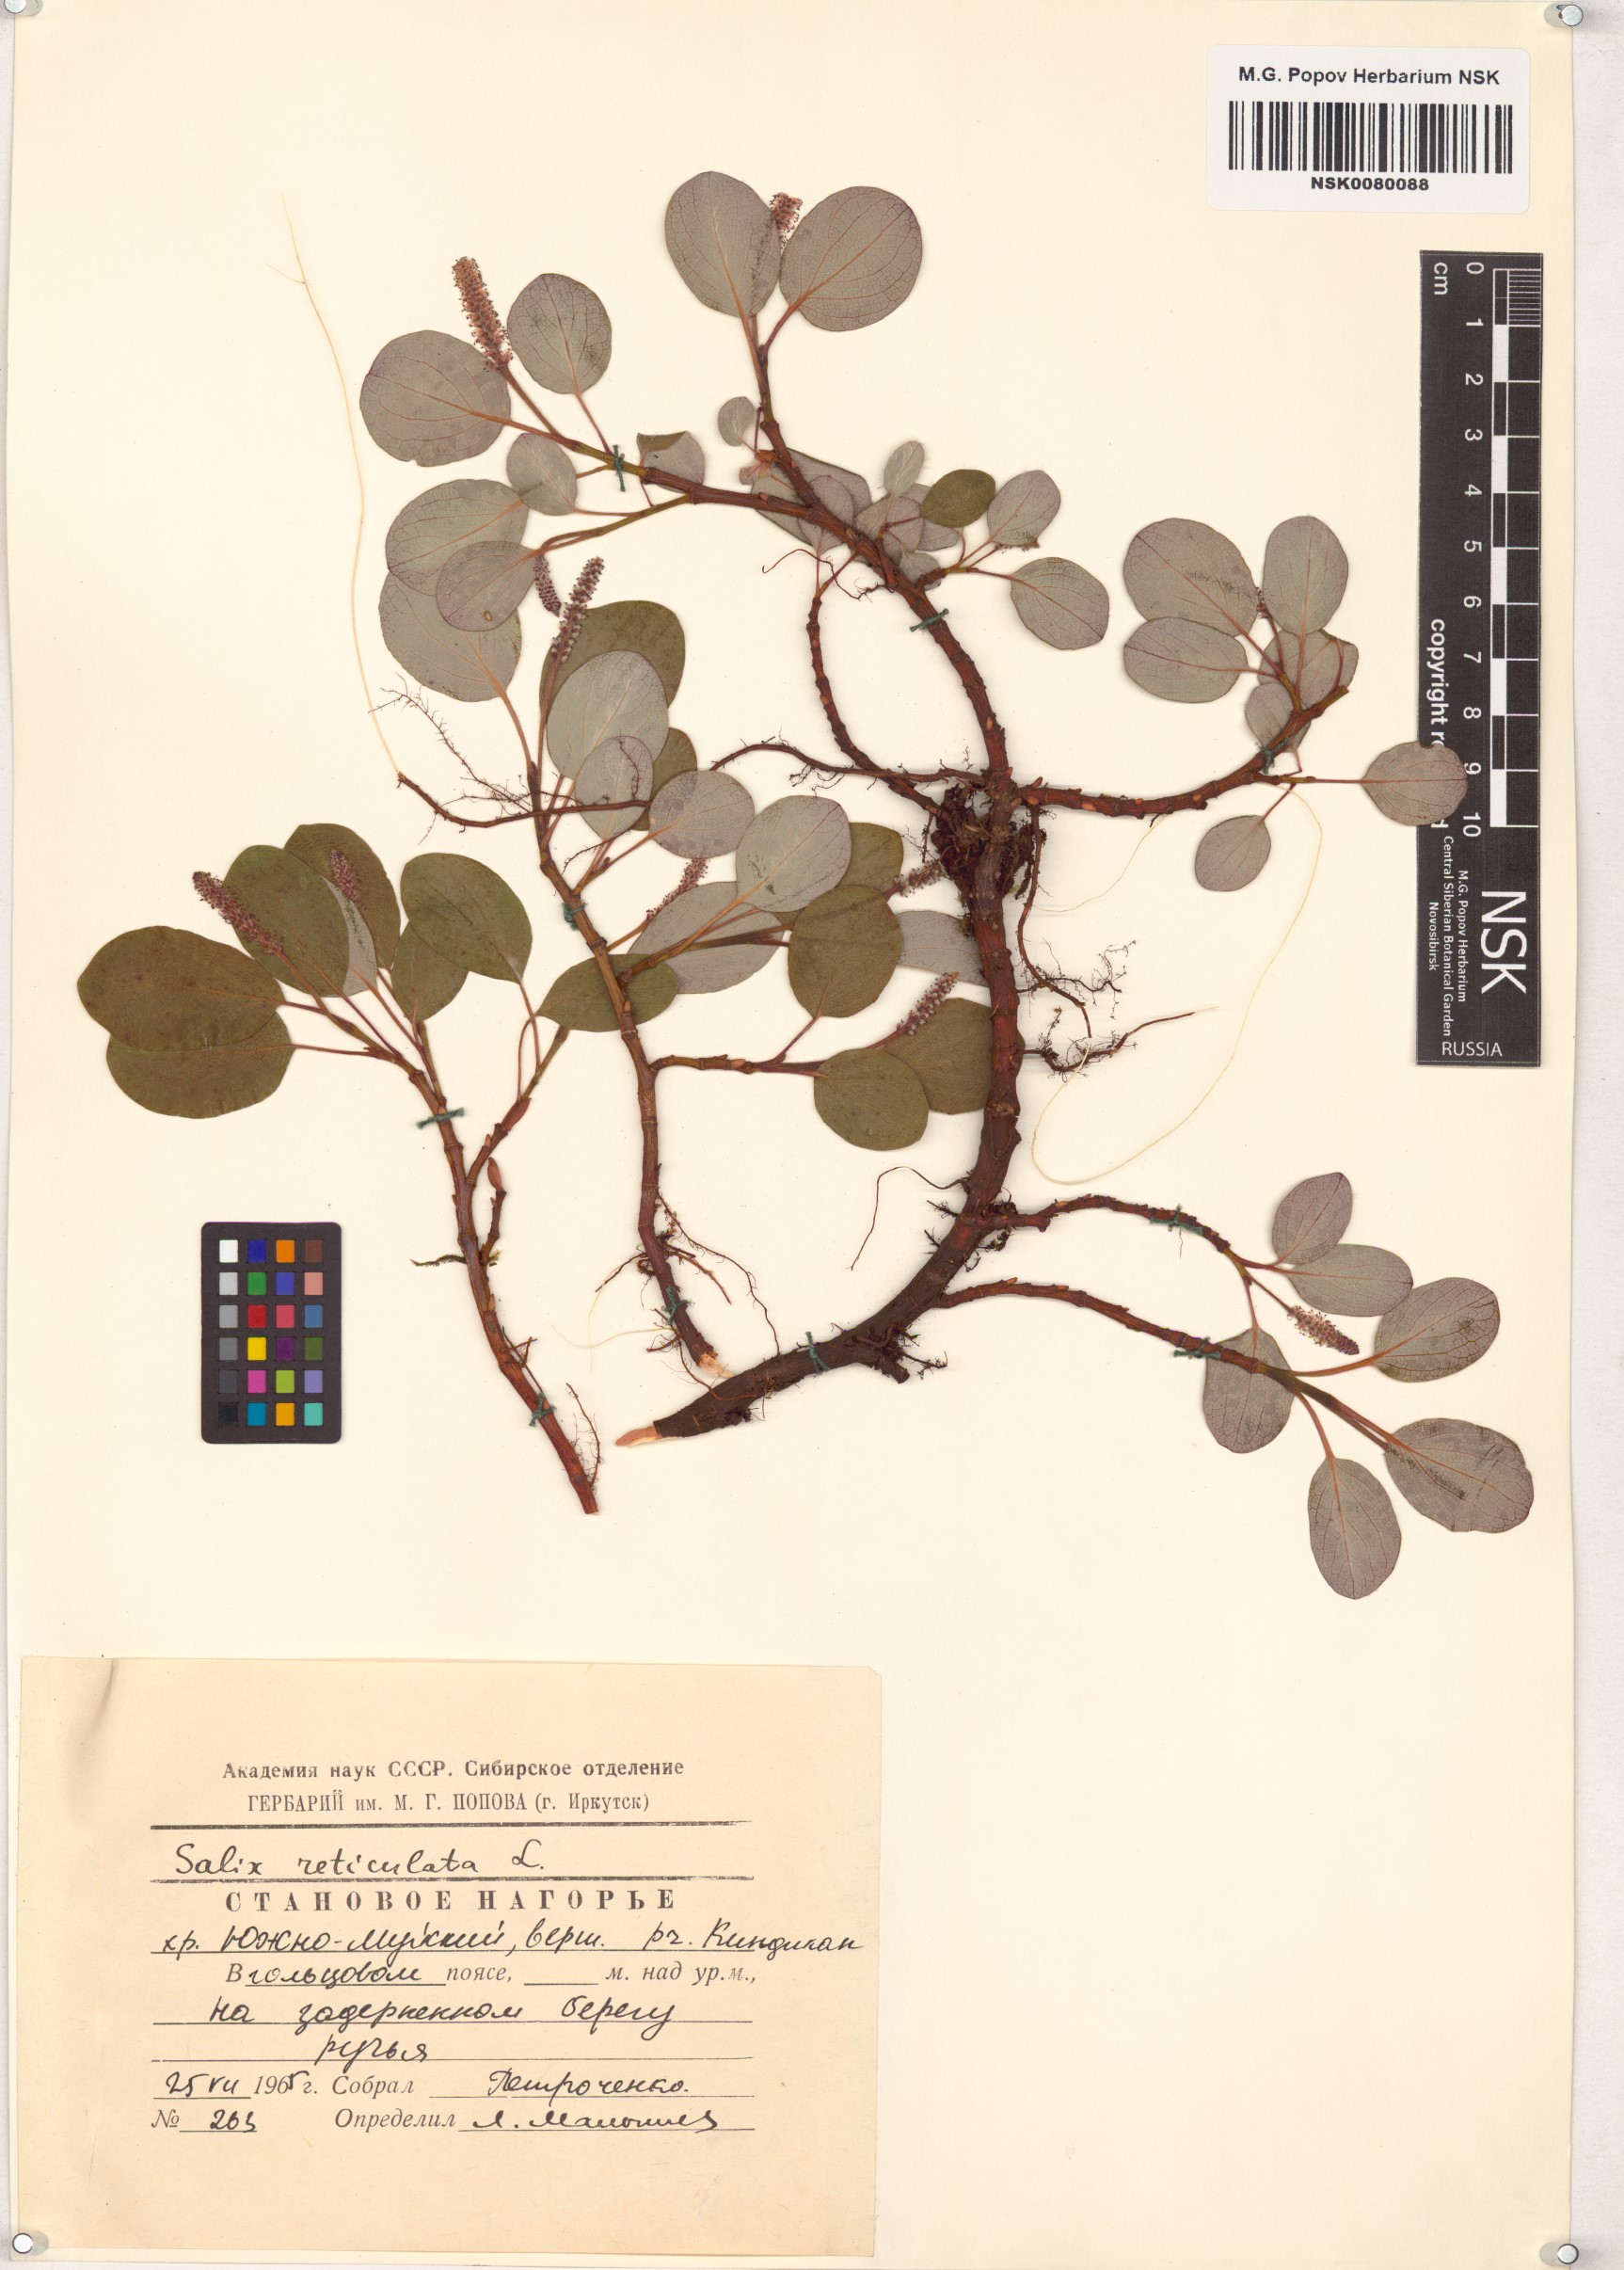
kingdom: Plantae
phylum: Tracheophyta
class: Magnoliopsida
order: Malpighiales
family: Salicaceae
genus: Salix
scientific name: Salix reticulata
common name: Net-leaved willow
